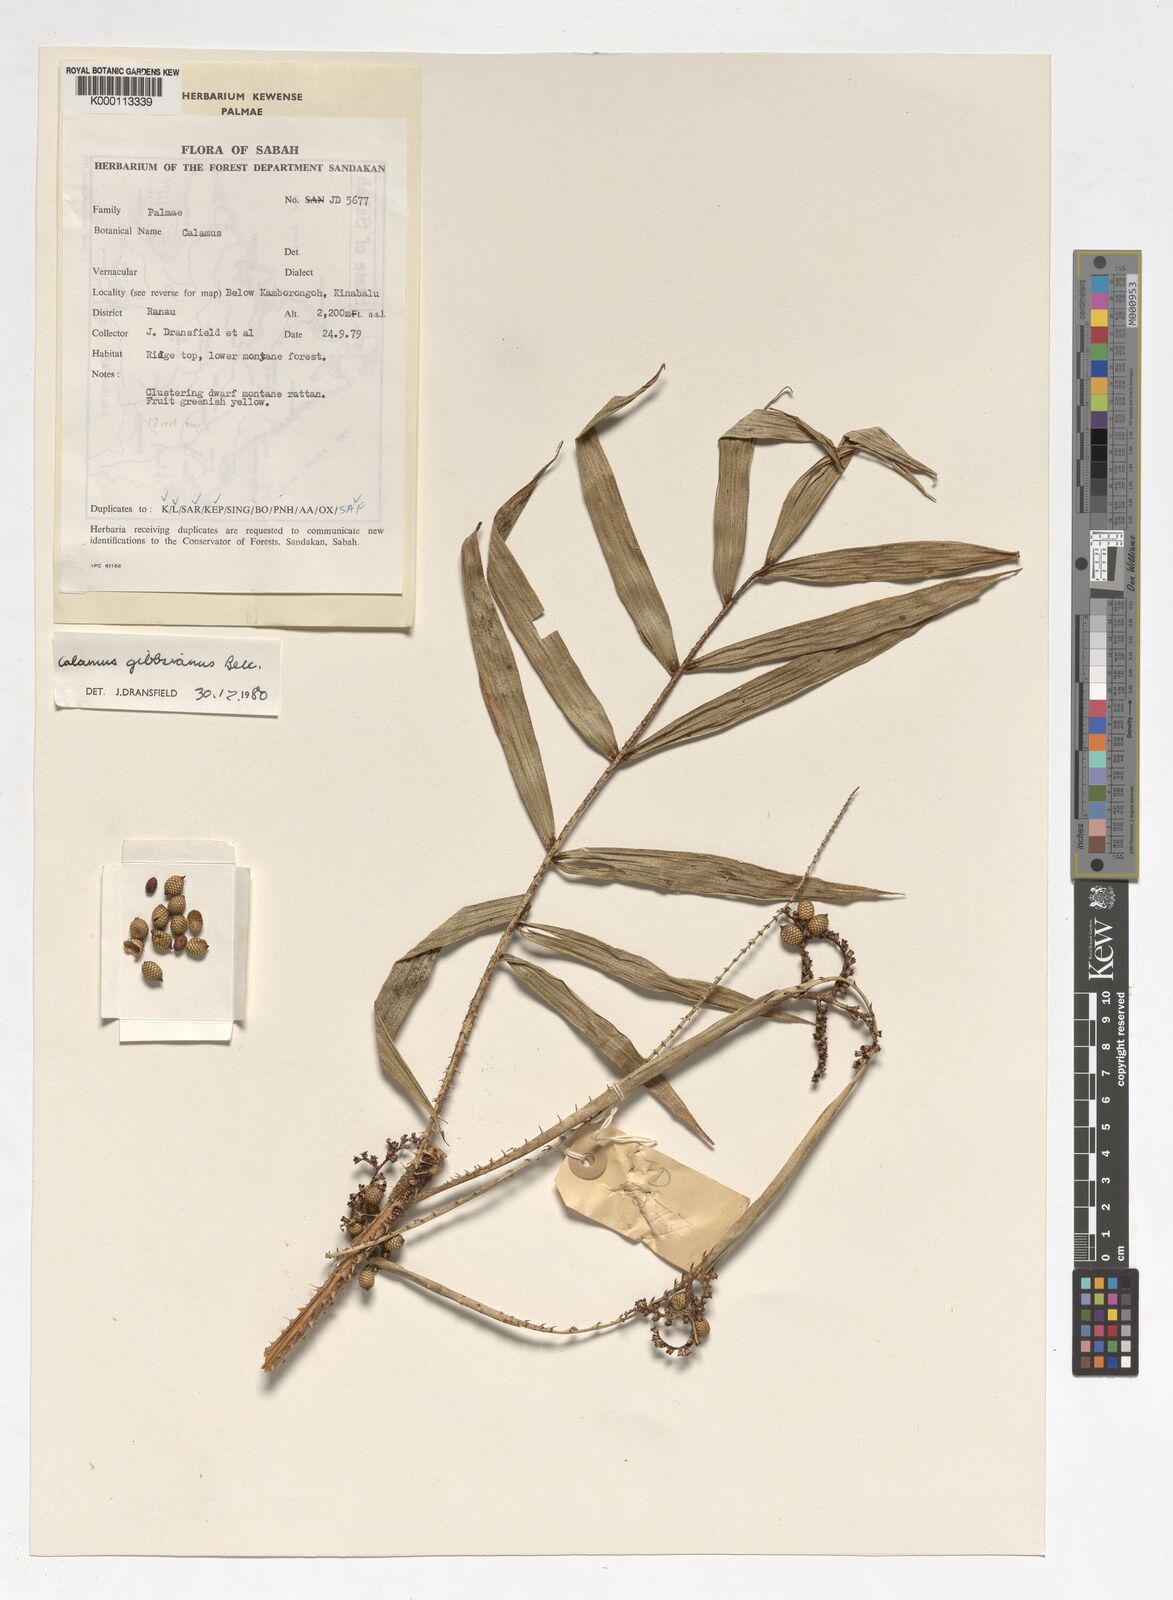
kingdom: Plantae
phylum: Tracheophyta
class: Liliopsida
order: Arecales
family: Arecaceae
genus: Calamus
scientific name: Calamus gibbsianus
